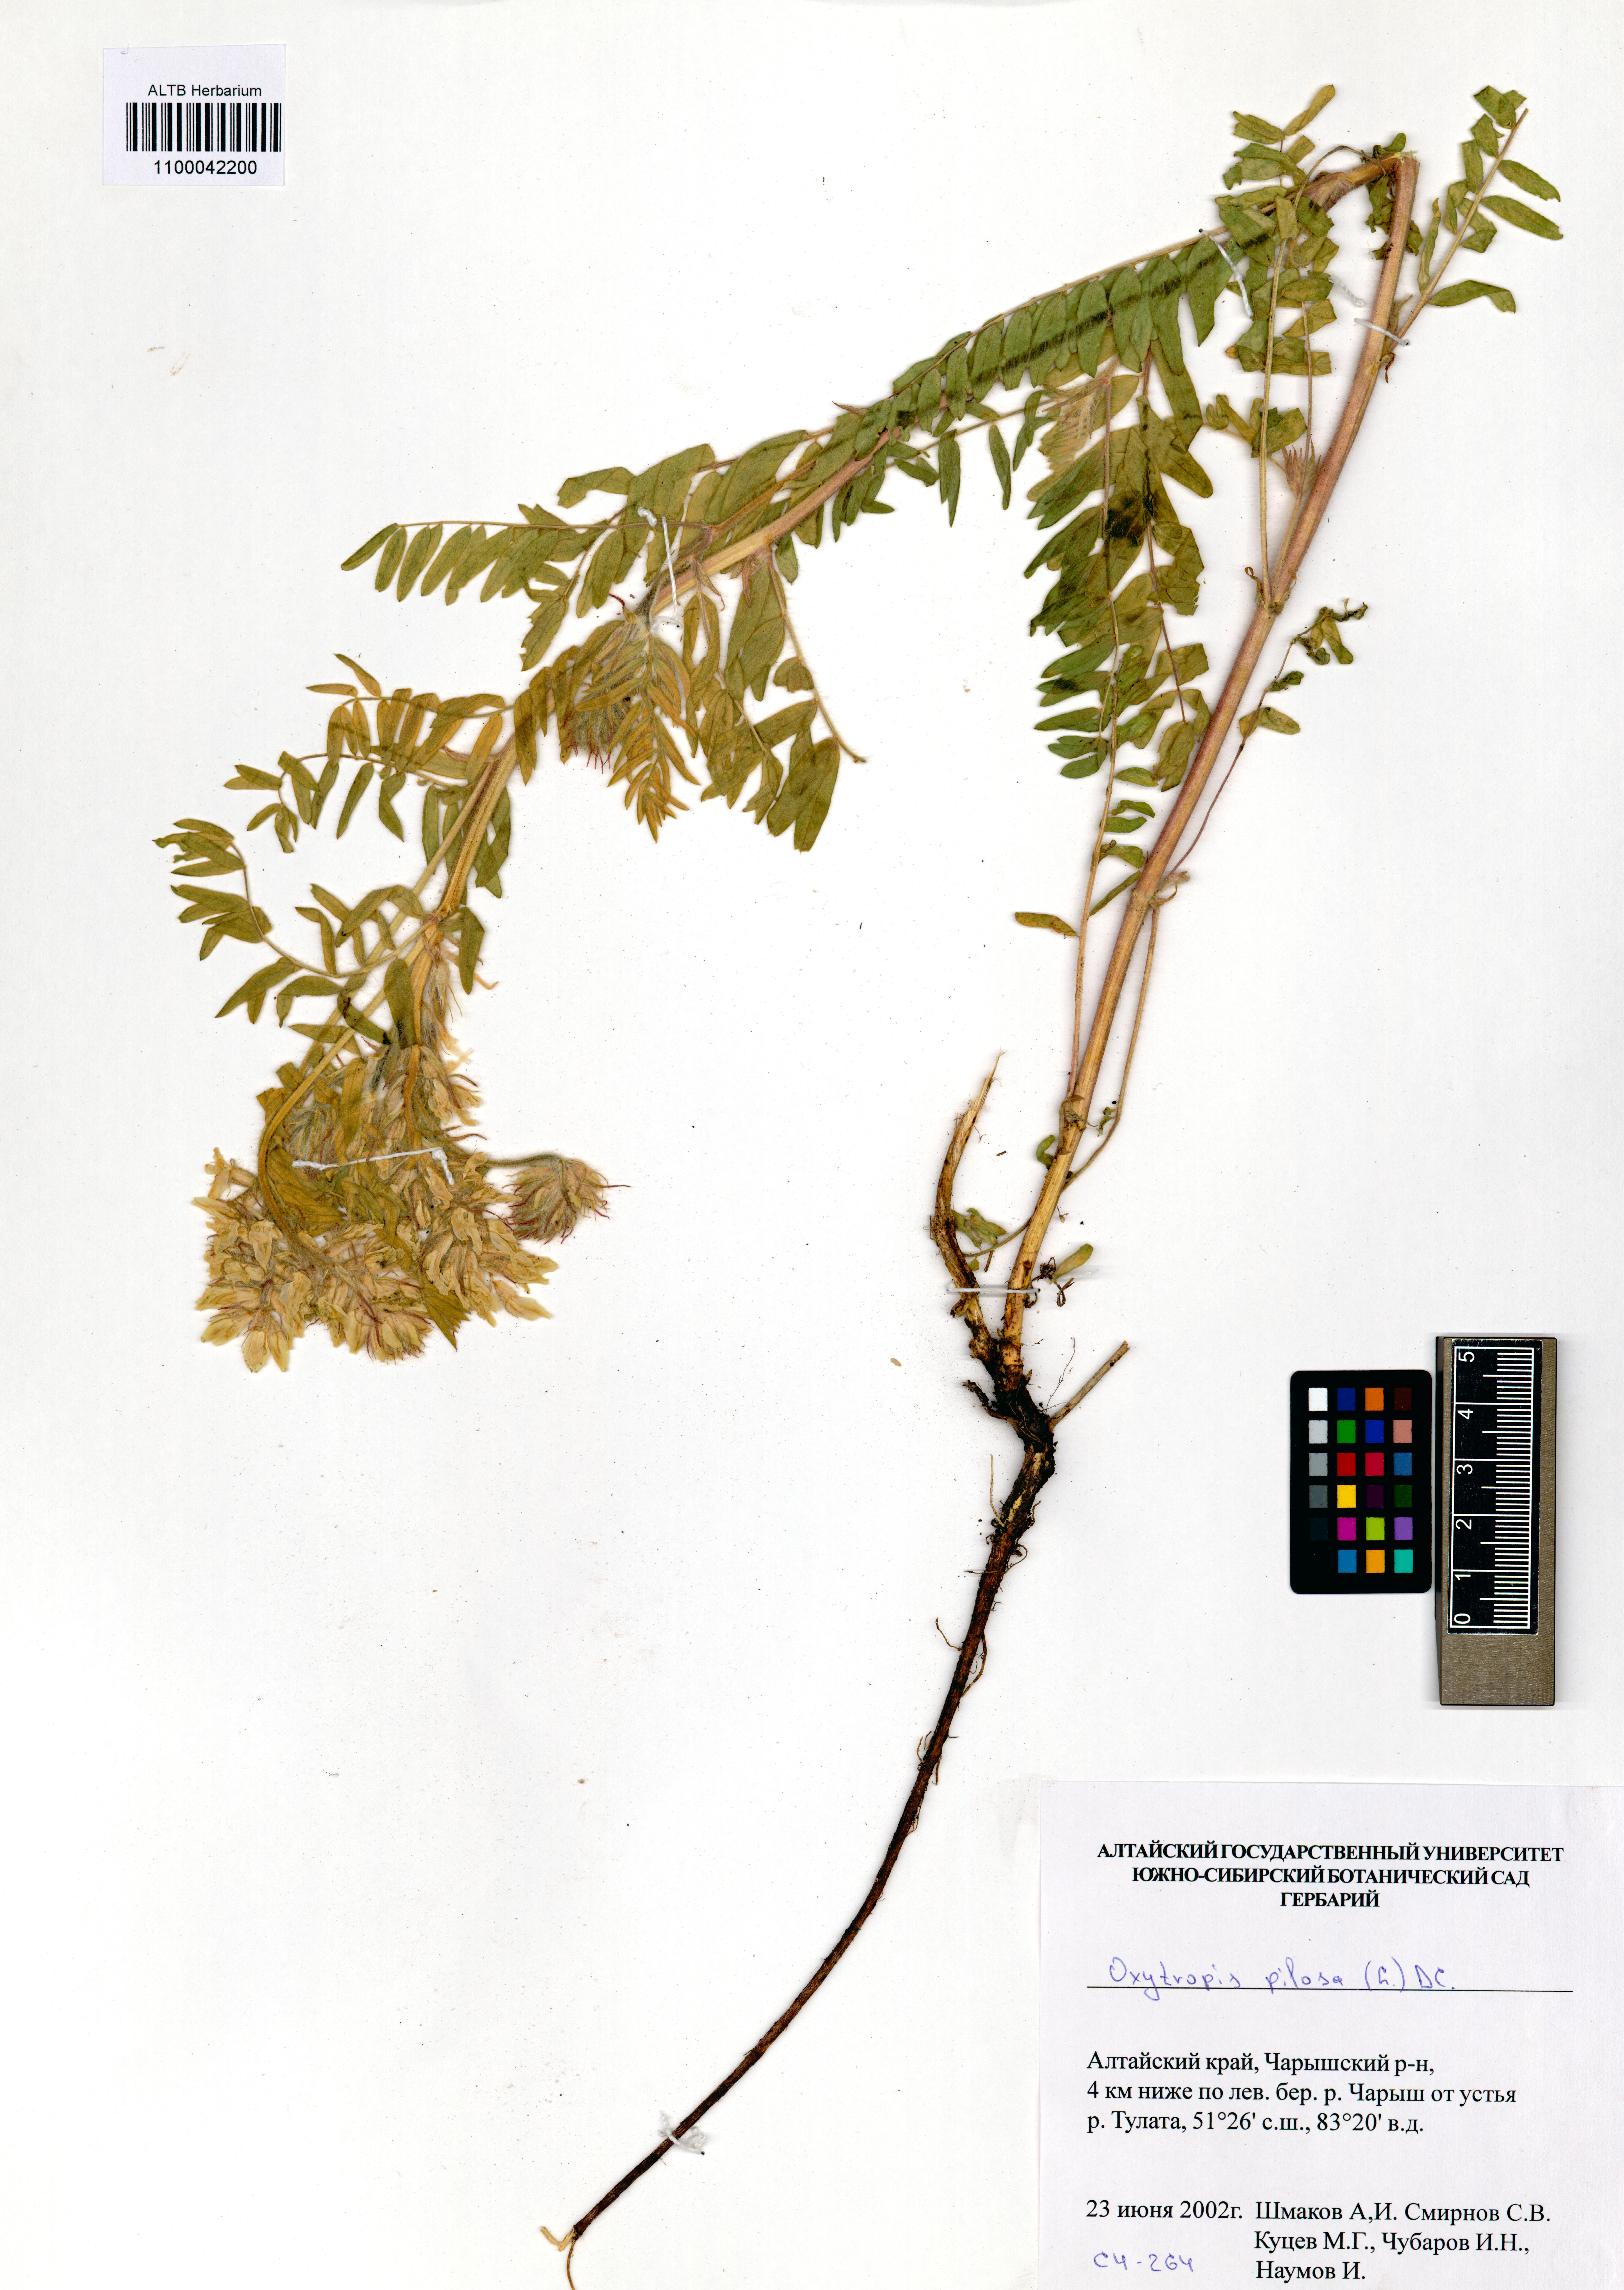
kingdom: Plantae
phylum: Tracheophyta
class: Magnoliopsida
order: Fabales
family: Fabaceae
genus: Oxytropis
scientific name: Oxytropis pilosa
